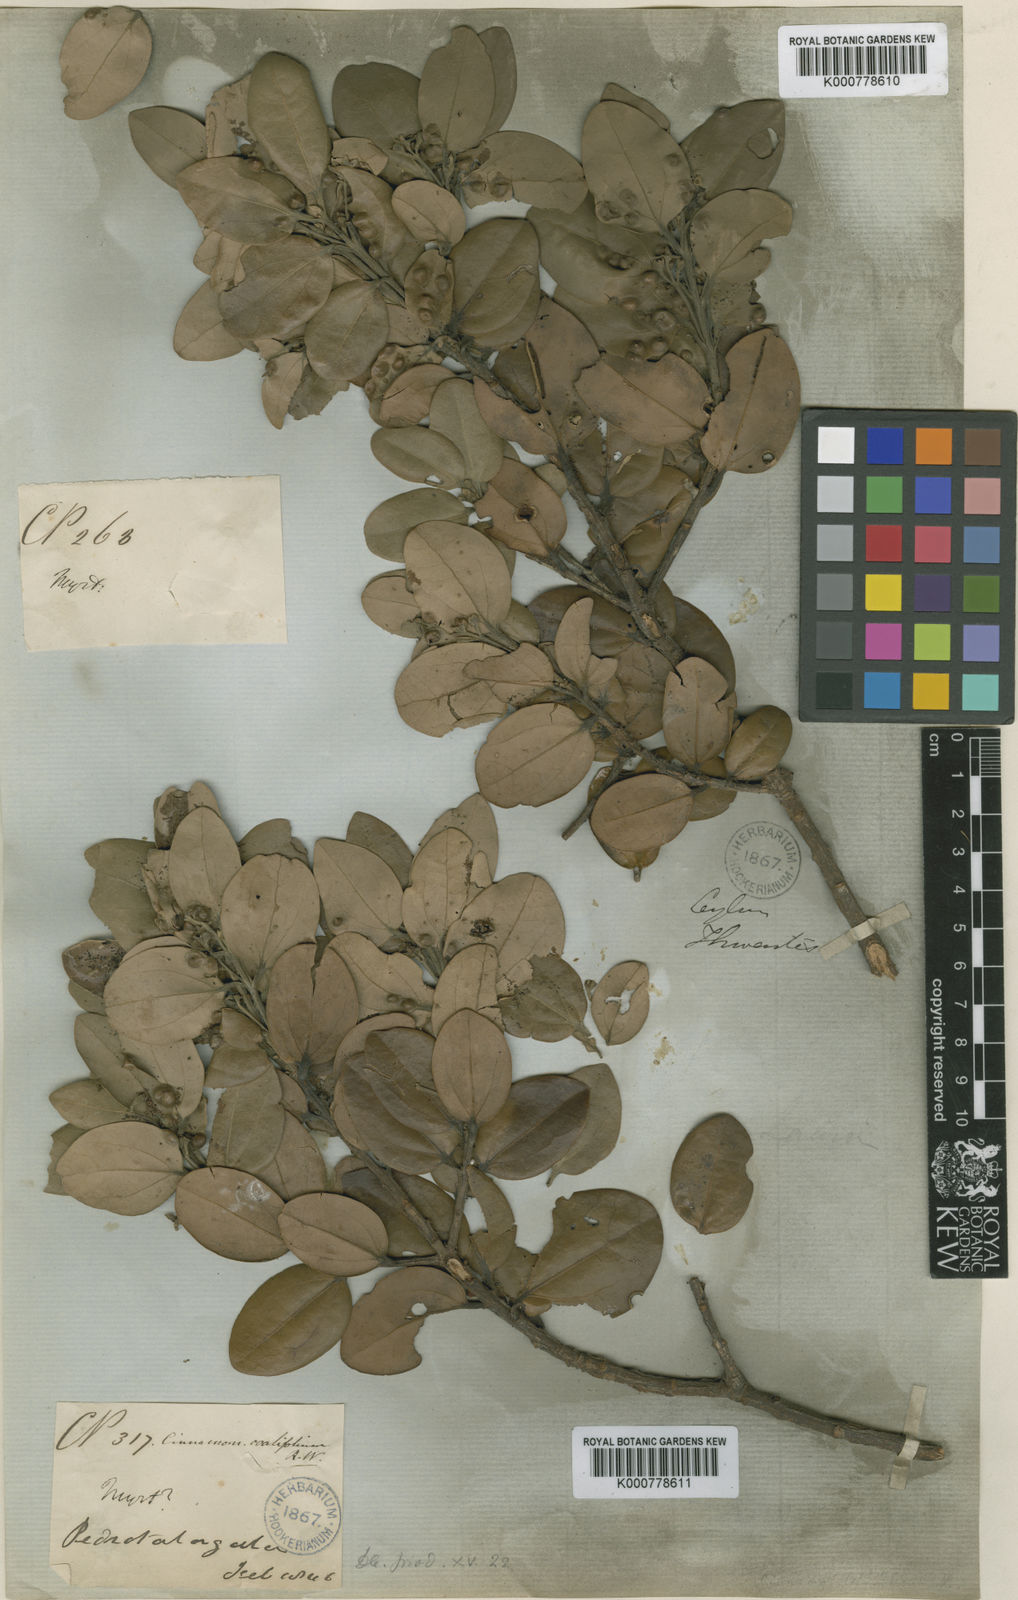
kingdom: Plantae
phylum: Tracheophyta
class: Magnoliopsida
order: Laurales
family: Lauraceae
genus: Cinnamomum
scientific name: Cinnamomum ovalifolium
